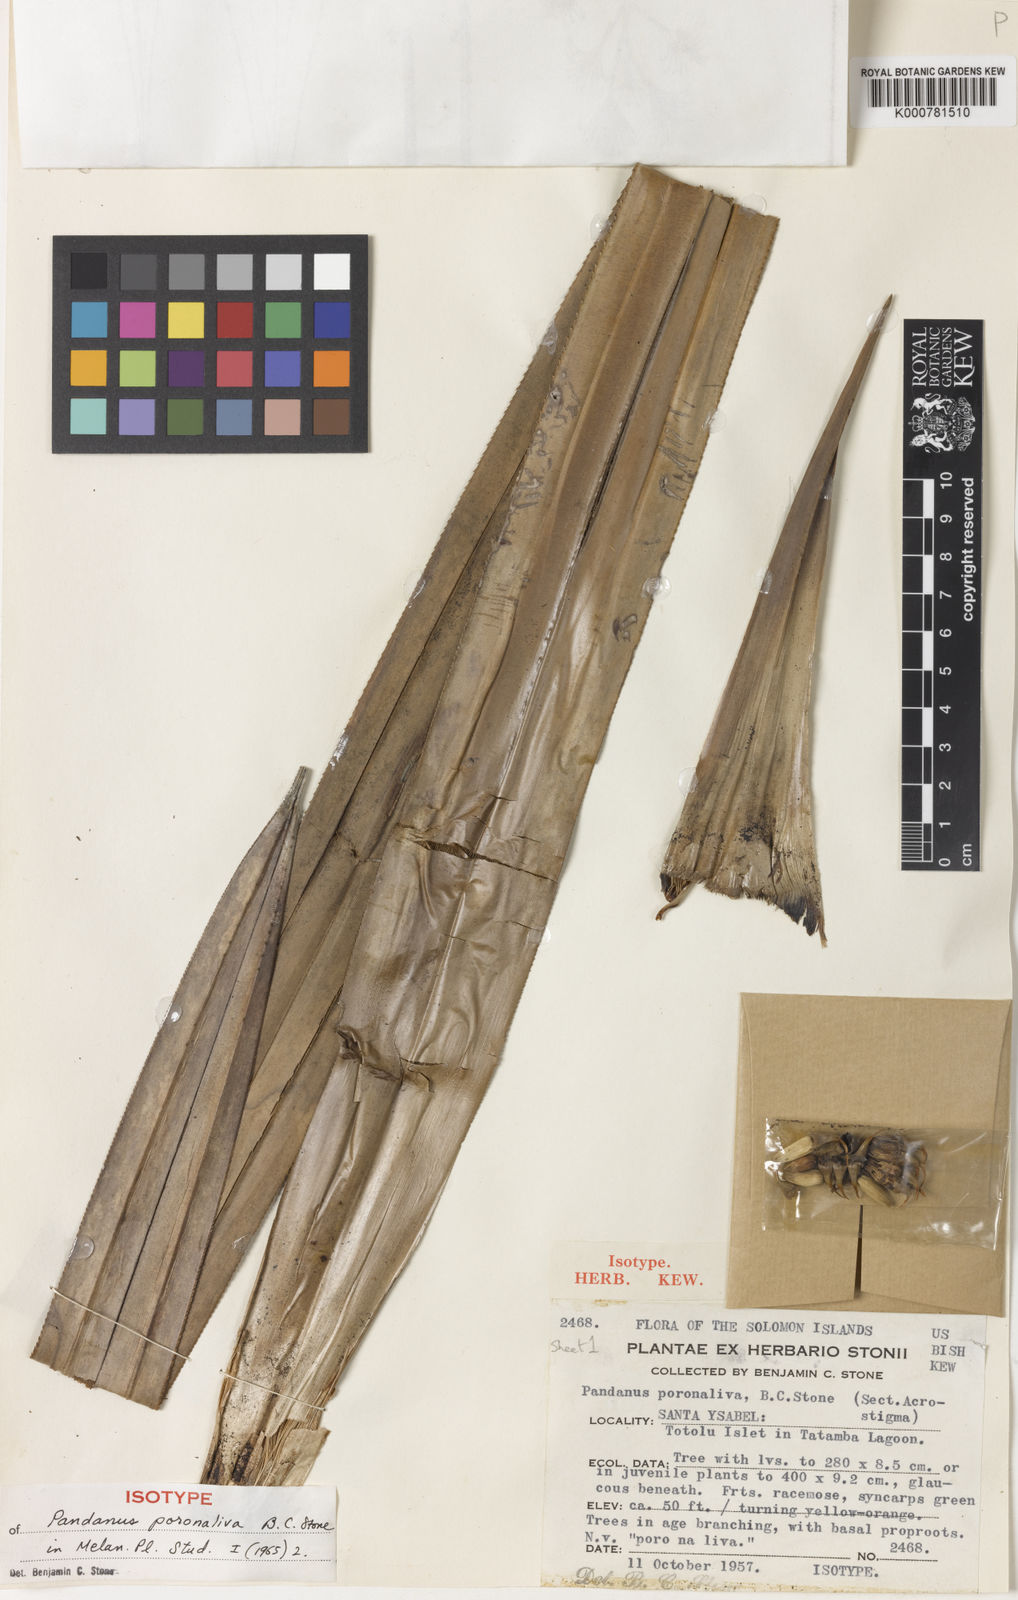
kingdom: Plantae
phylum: Tracheophyta
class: Liliopsida
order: Pandanales
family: Pandanaceae
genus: Pandanus
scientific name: Pandanus
